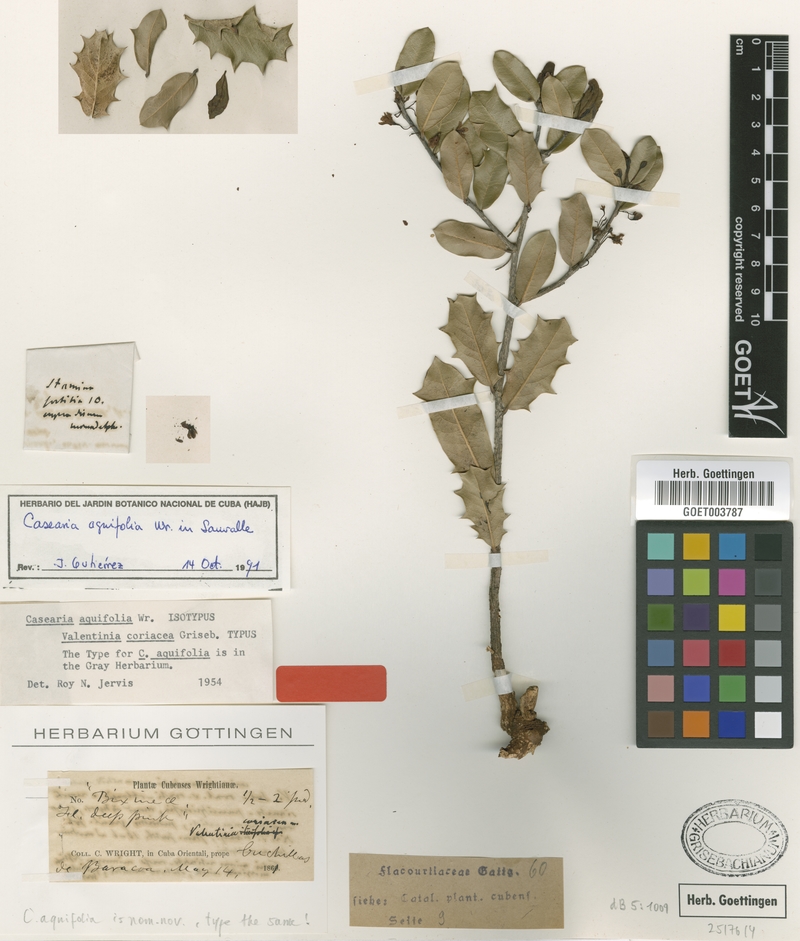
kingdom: Plantae
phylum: Tracheophyta
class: Magnoliopsida
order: Malpighiales
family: Salicaceae
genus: Casearia
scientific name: Casearia aquifolia
